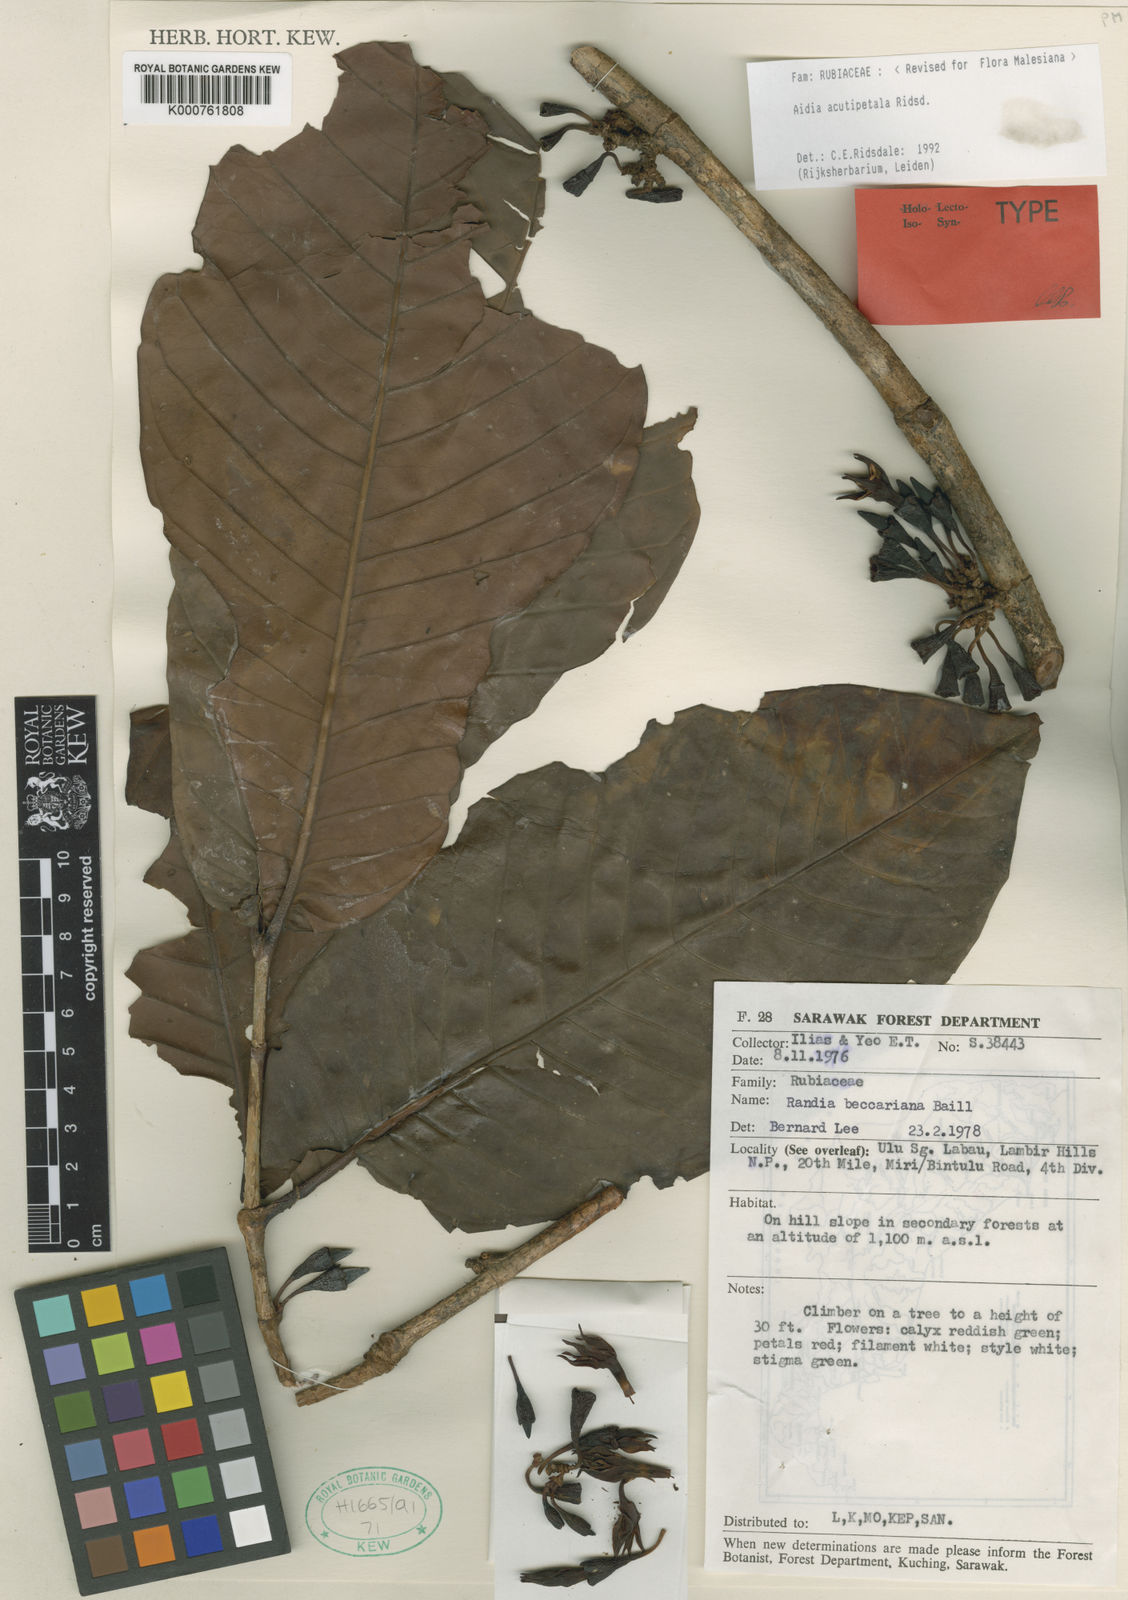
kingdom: Plantae
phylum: Tracheophyta
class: Magnoliopsida
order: Gentianales
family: Rubiaceae
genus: Aidia
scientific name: Aidia acutipetala
